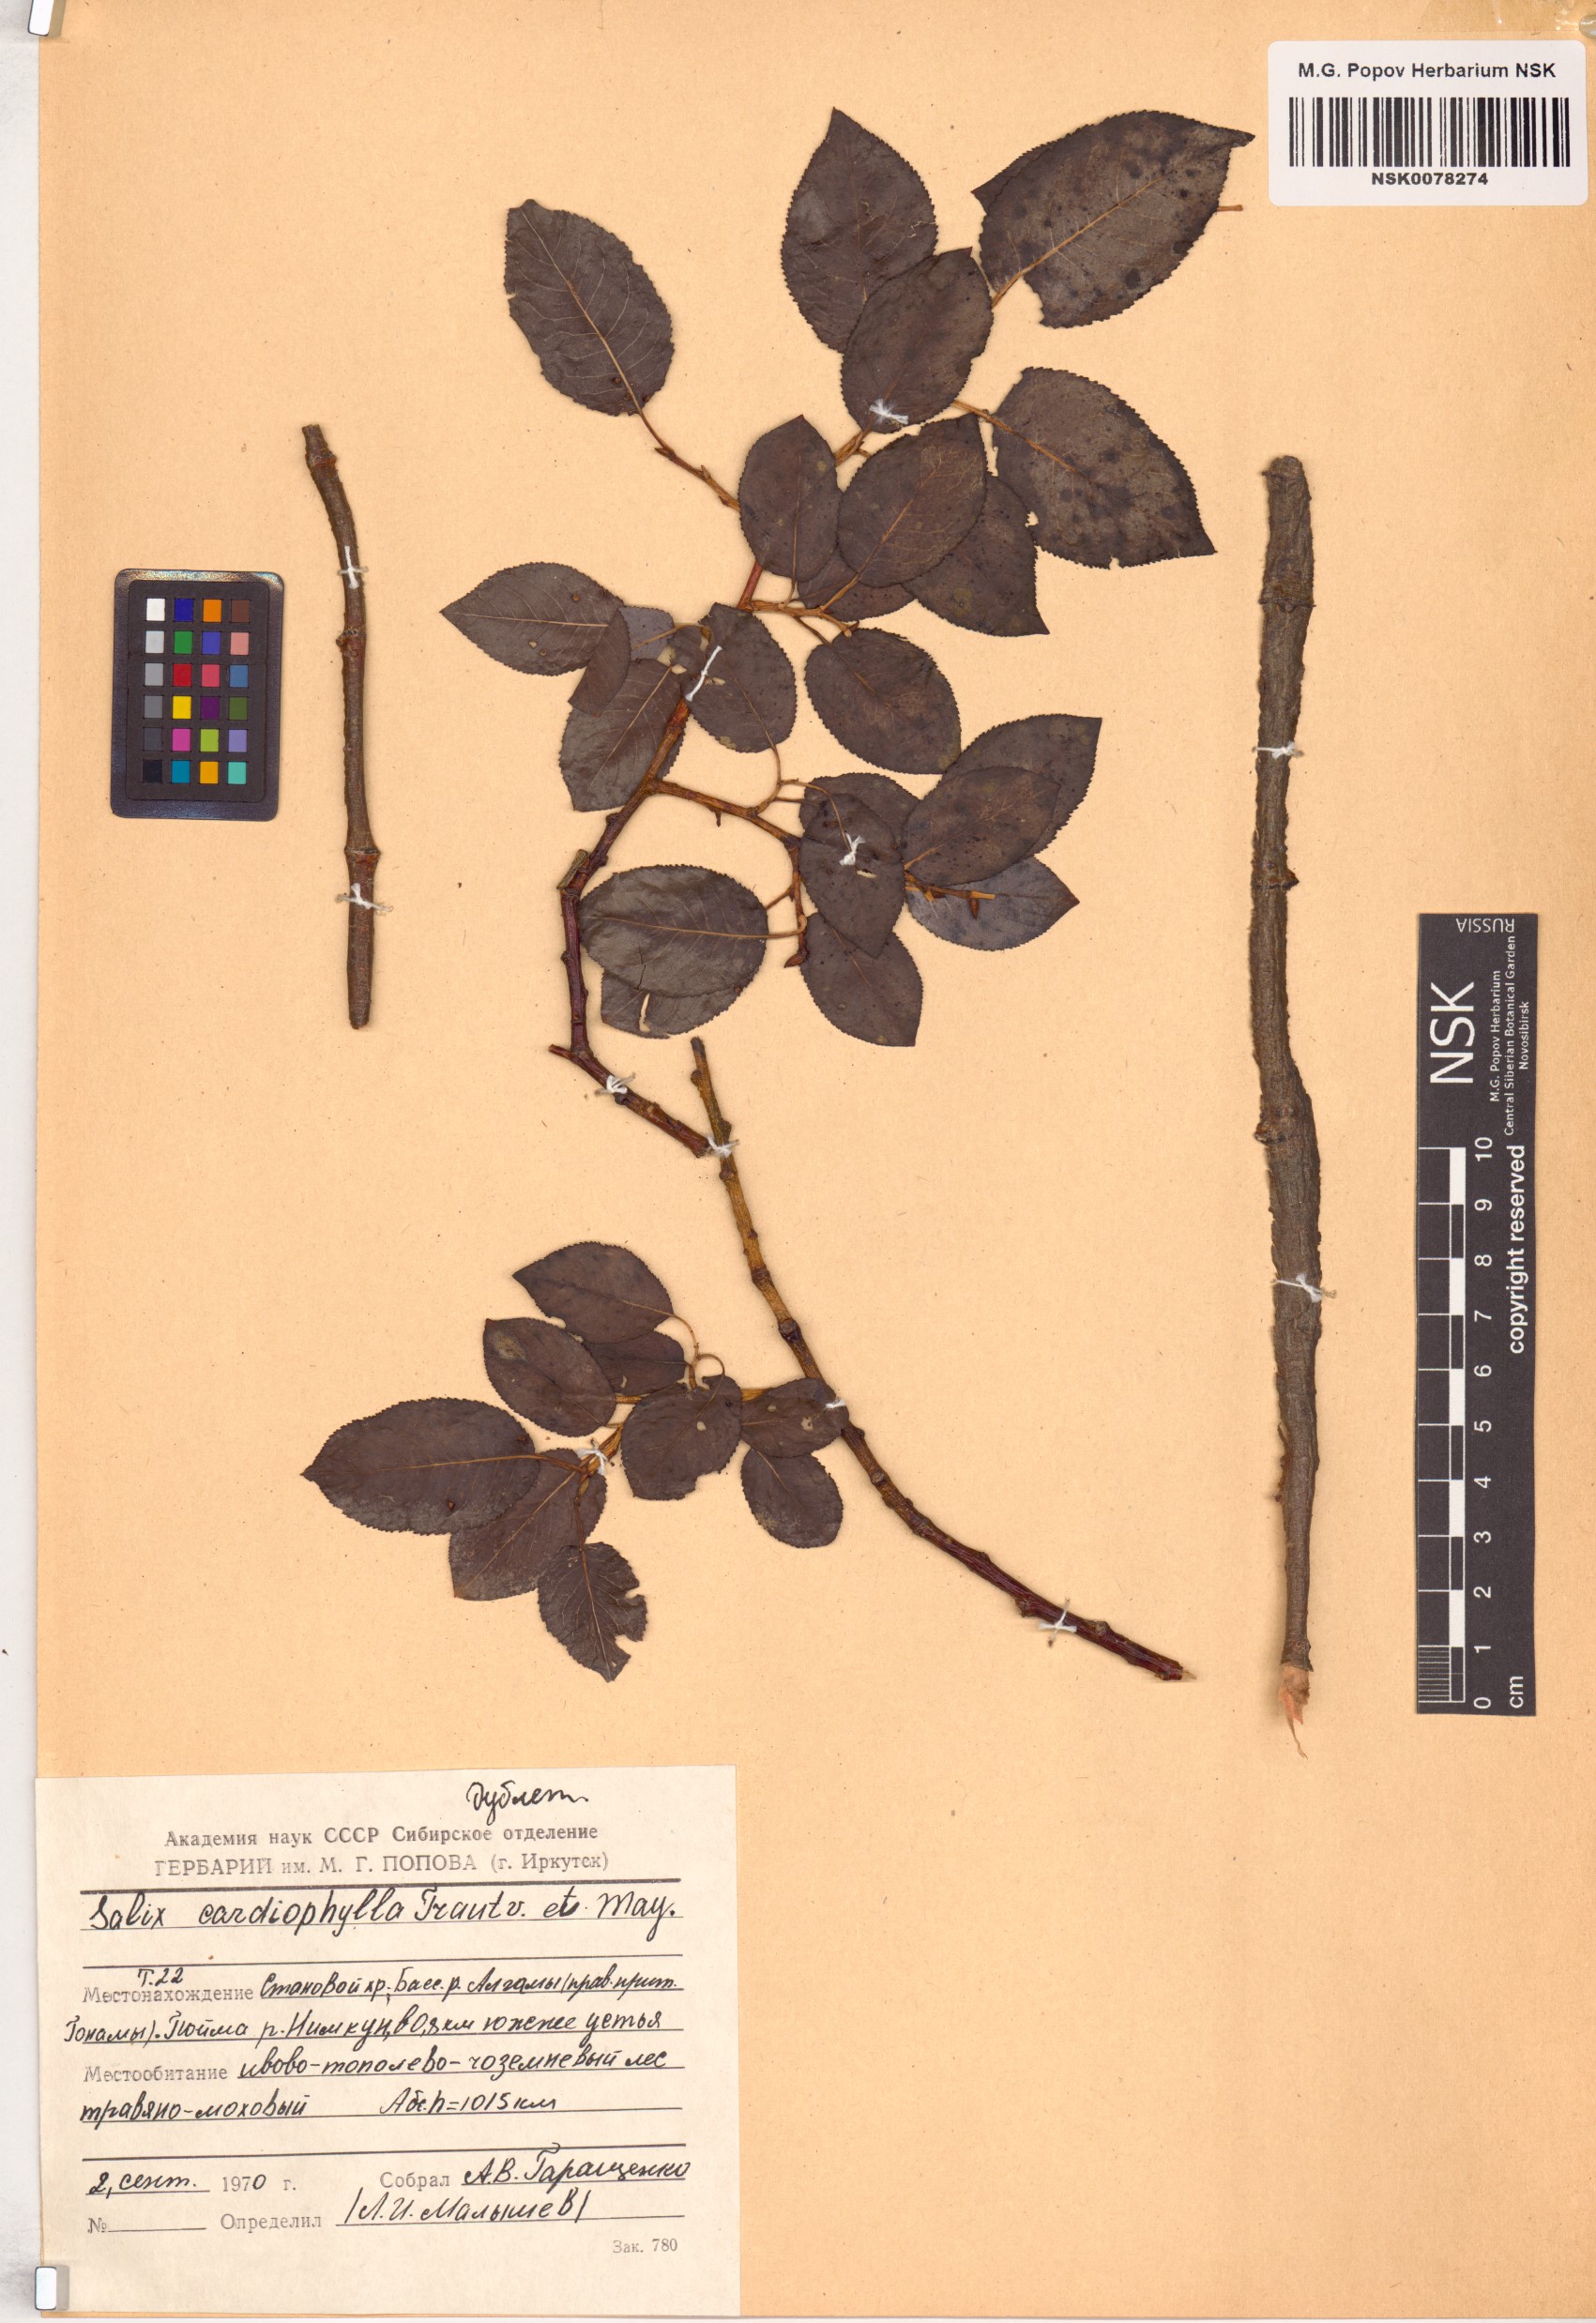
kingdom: Plantae
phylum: Tracheophyta
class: Magnoliopsida
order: Malpighiales
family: Salicaceae
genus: Chosenia
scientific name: Chosenia cardiophylla
